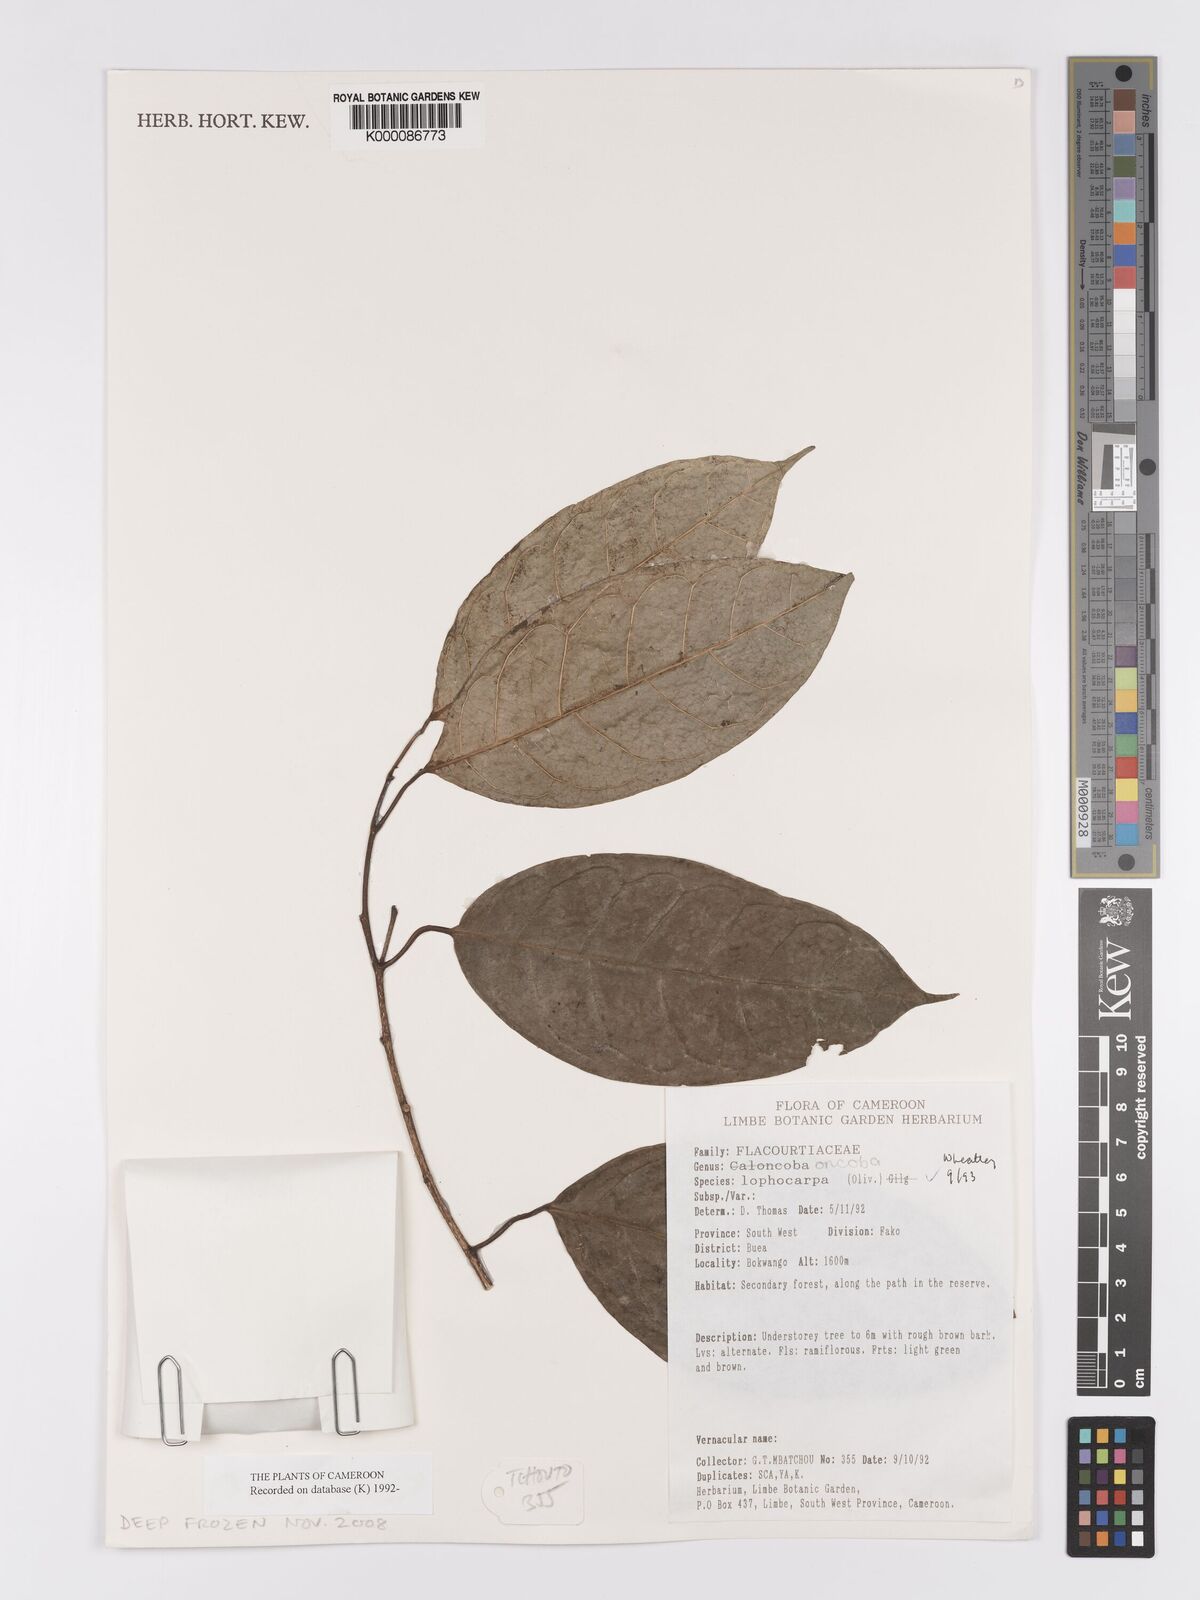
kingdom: Plantae
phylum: Tracheophyta
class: Magnoliopsida
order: Malpighiales
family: Achariaceae
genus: Caloncoba
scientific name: Caloncoba lophocarpa
